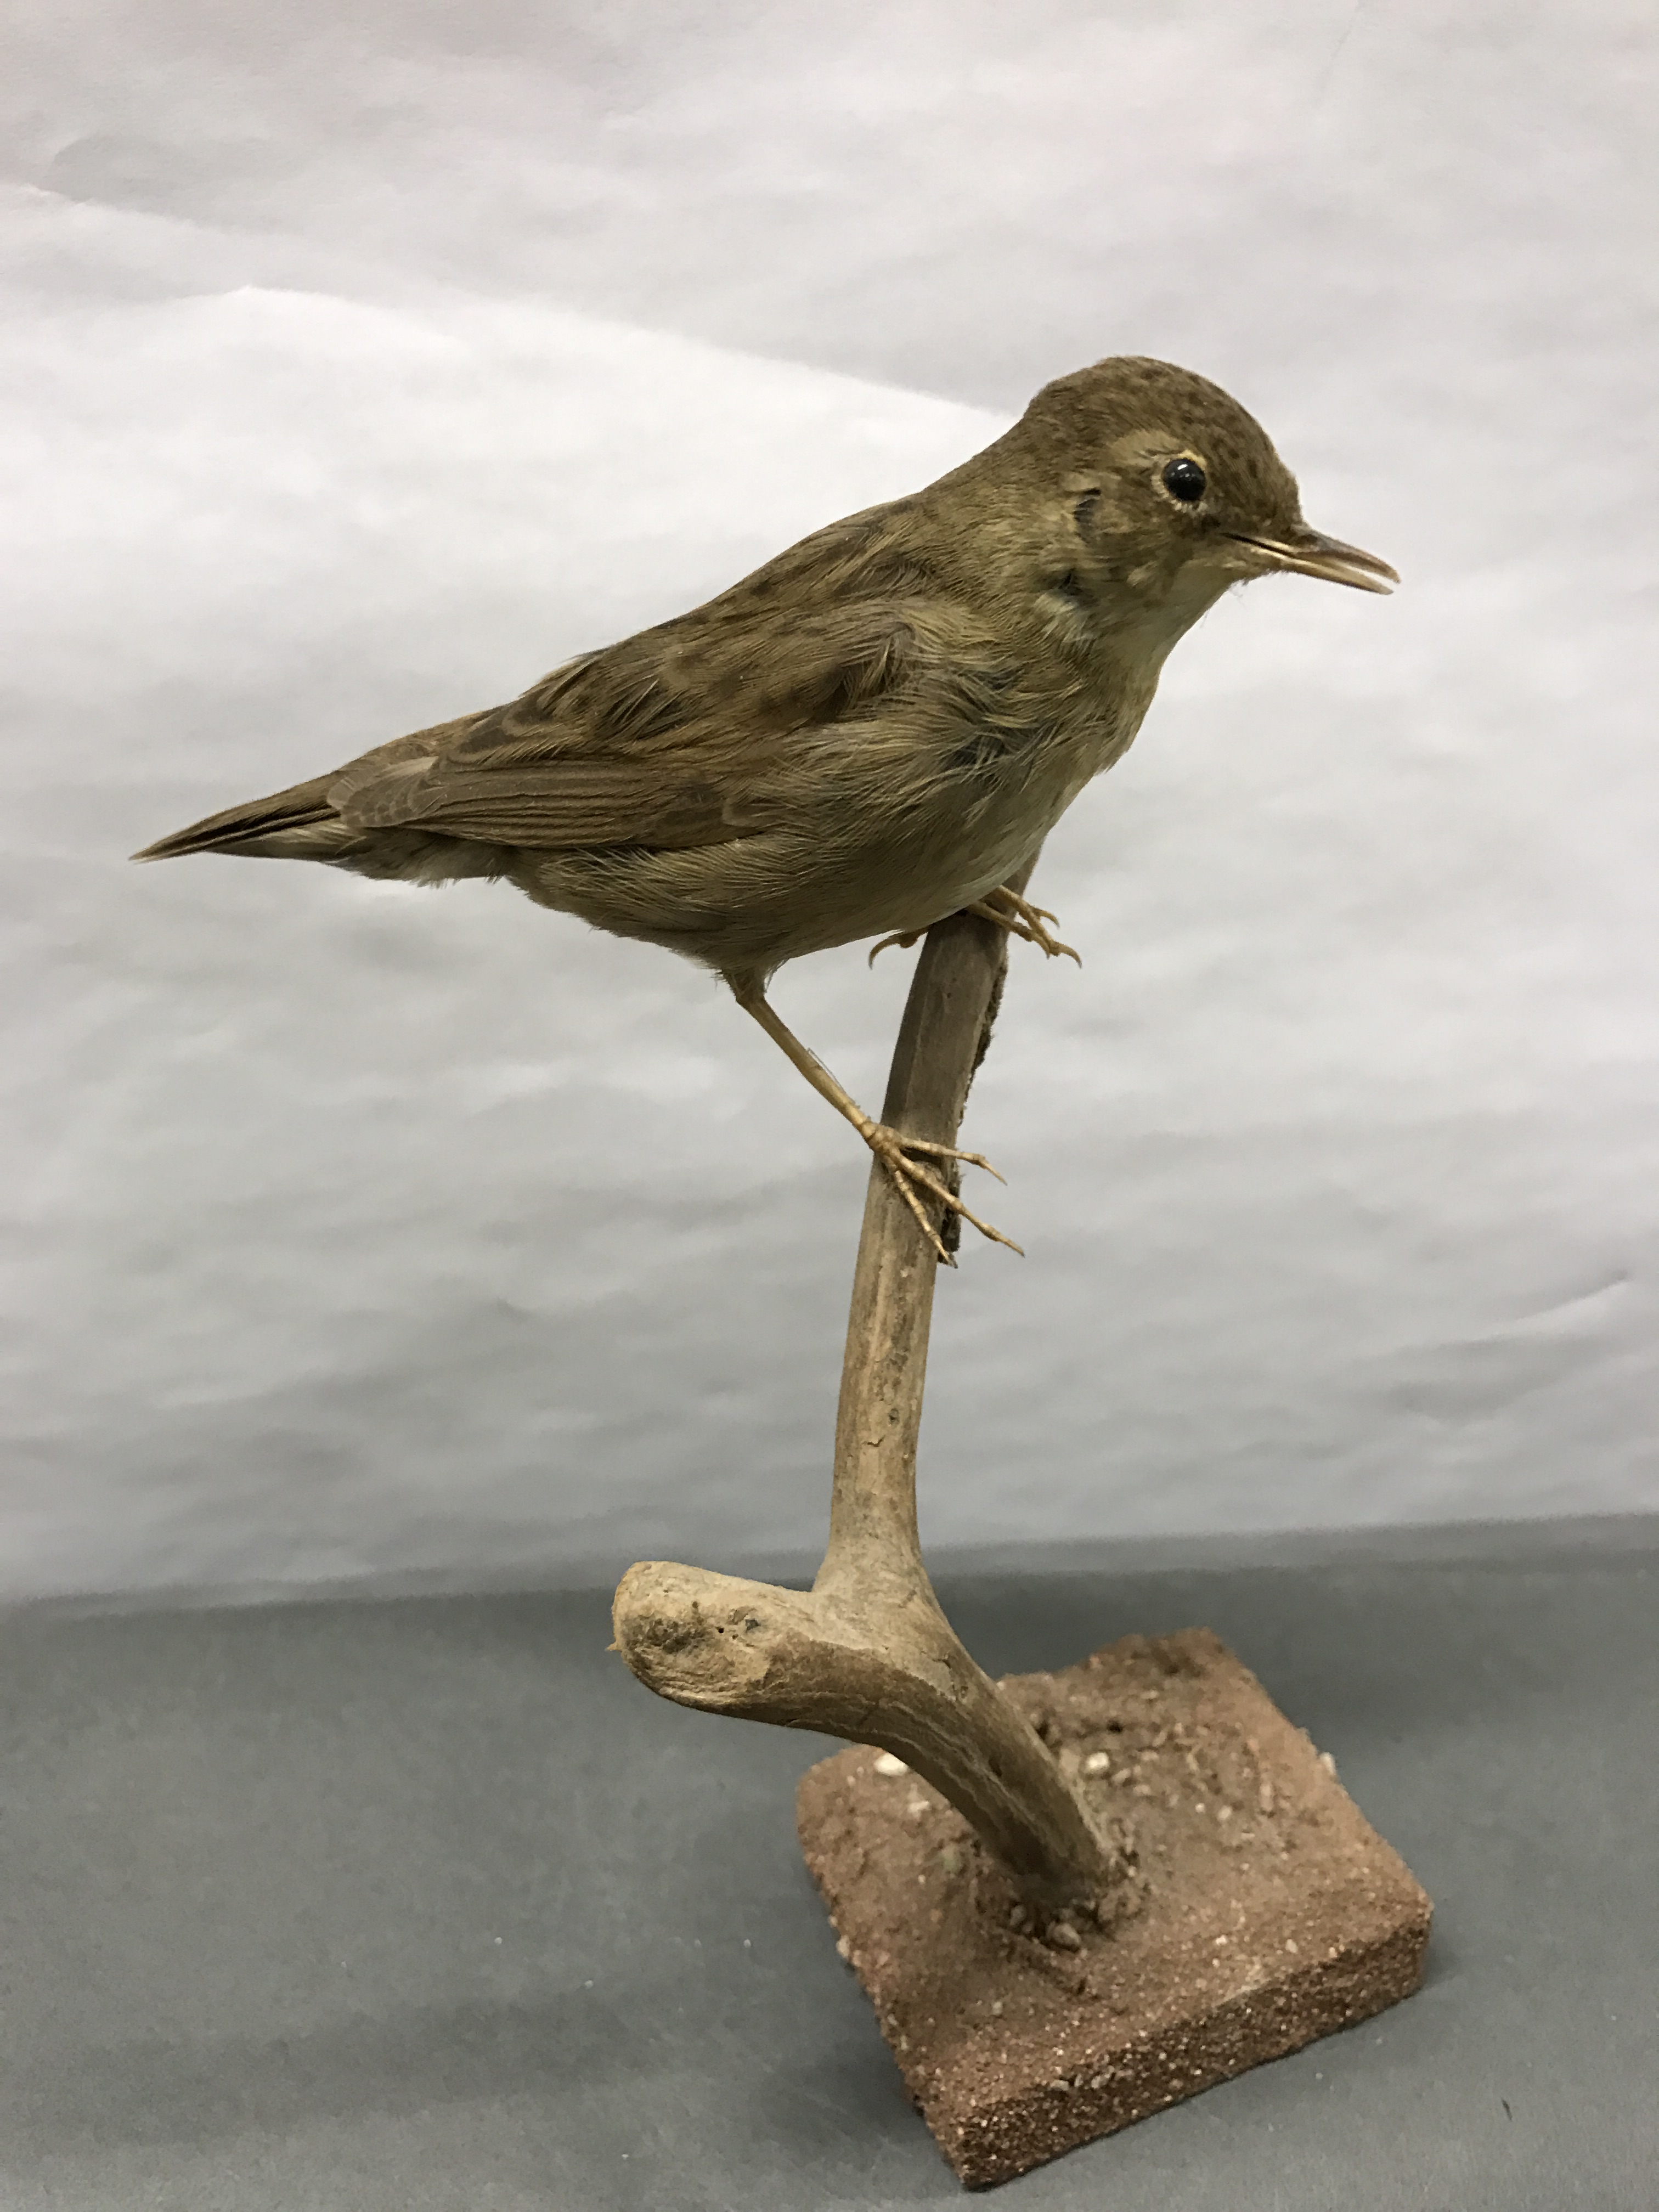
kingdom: Animalia
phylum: Chordata
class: Aves
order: Passeriformes
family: Locustellidae
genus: Locustella
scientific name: Locustella naevia
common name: Common grasshopper warbler
